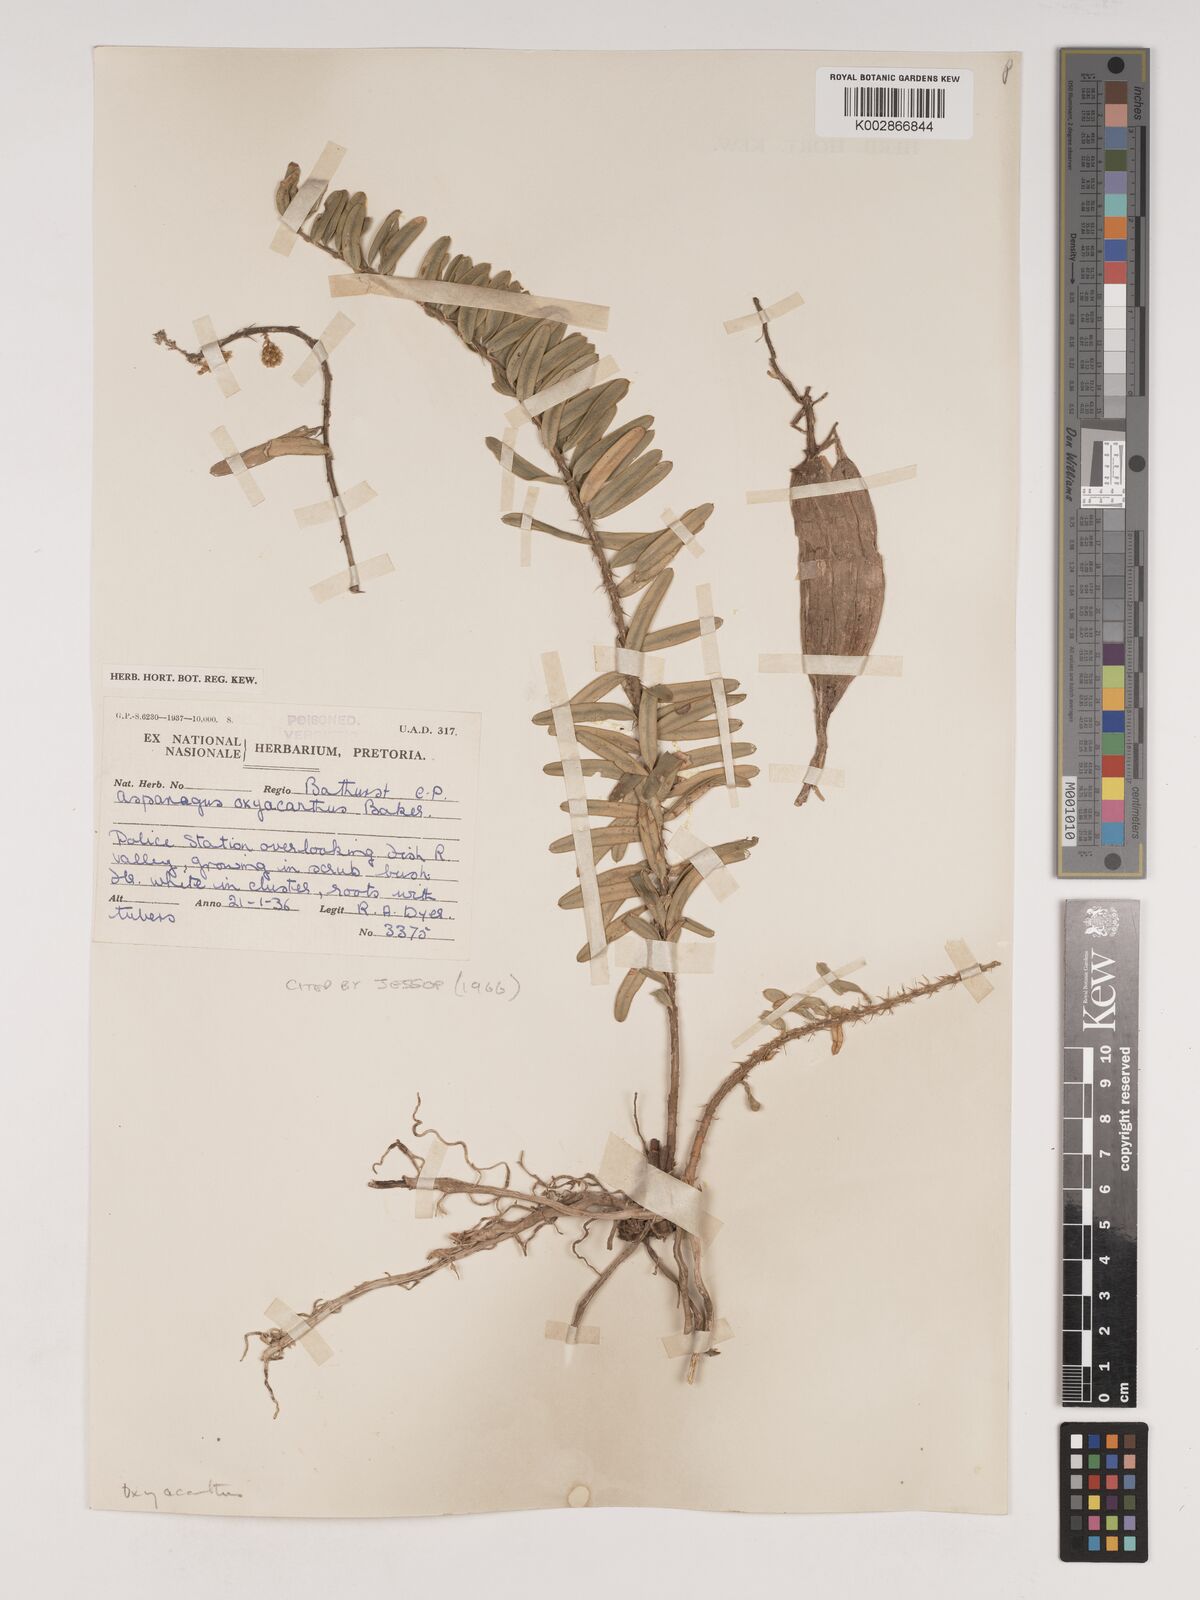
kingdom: Plantae
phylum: Tracheophyta
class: Liliopsida
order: Asparagales
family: Asparagaceae
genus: Asparagus
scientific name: Asparagus oxyacanthus
